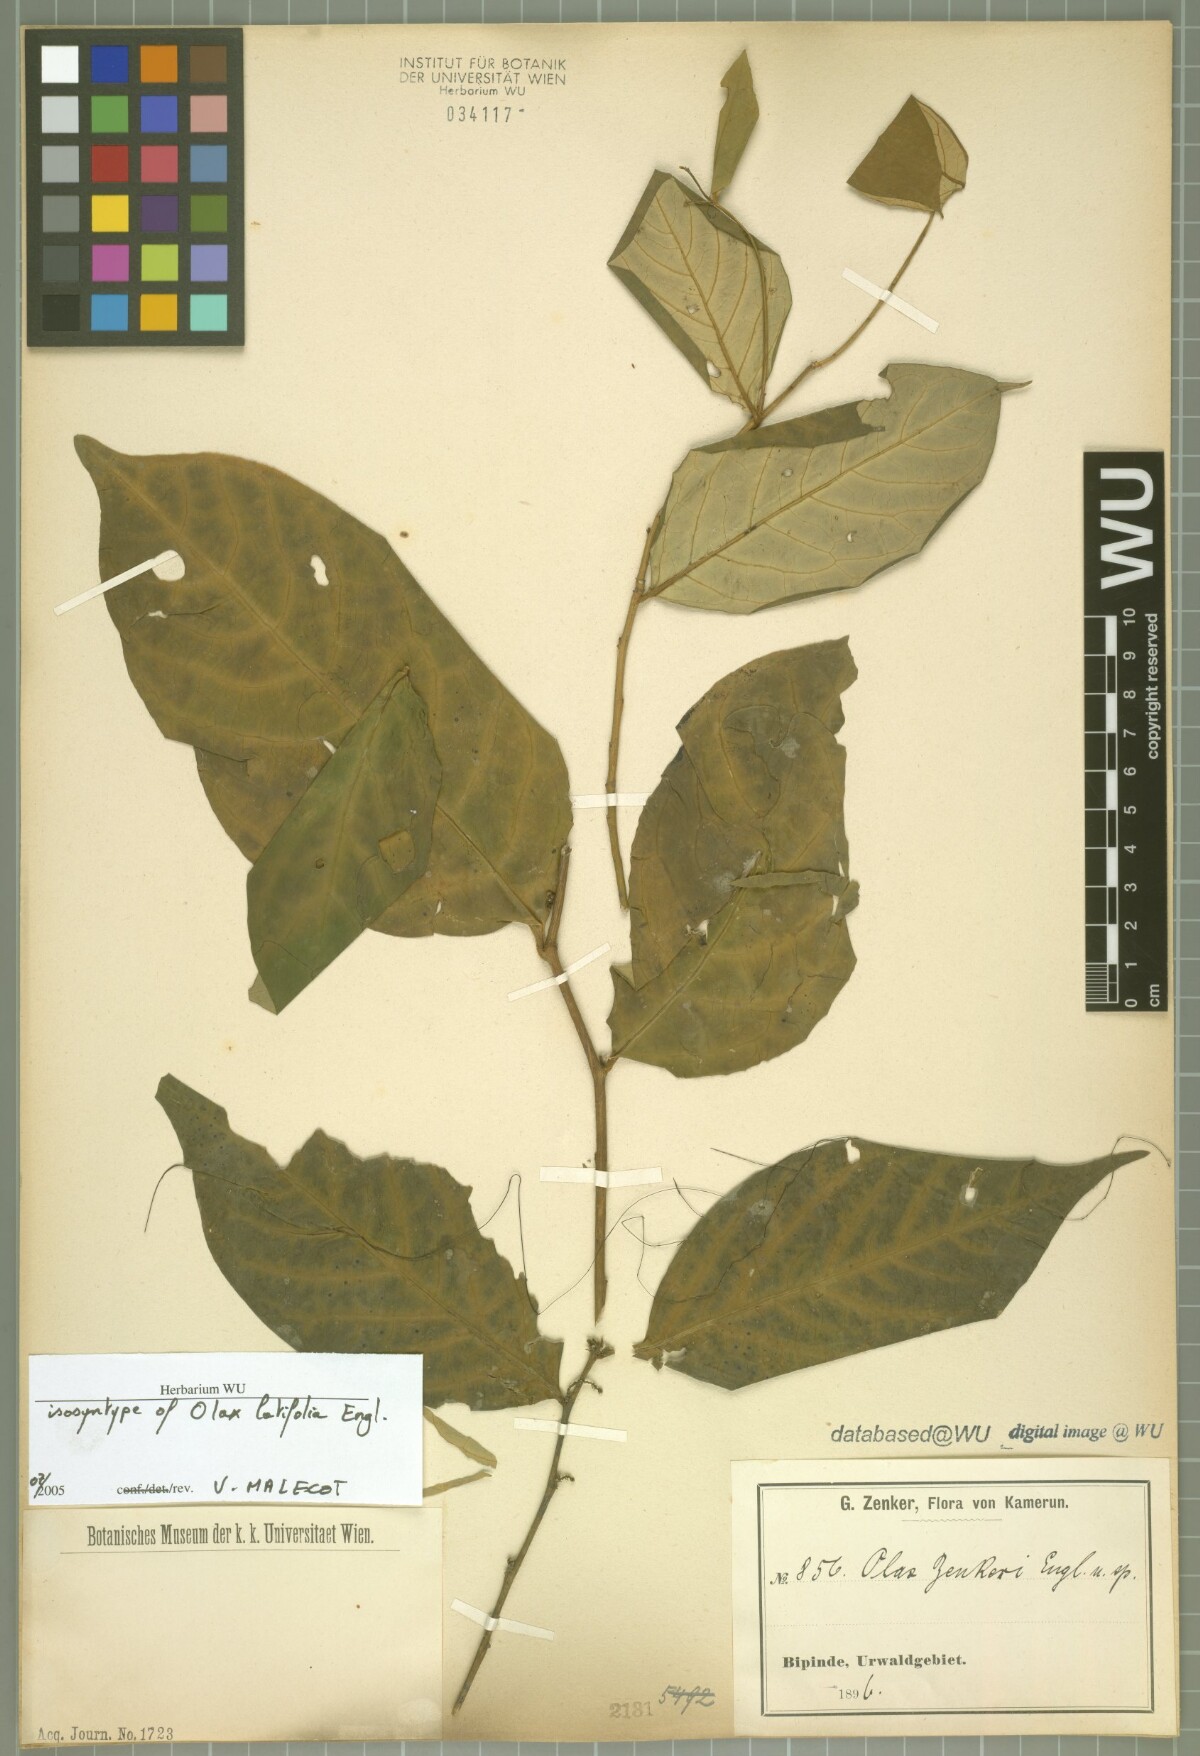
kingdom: Plantae
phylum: Tracheophyta
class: Magnoliopsida
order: Santalales
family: Olacaceae
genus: Olax
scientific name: Olax latifolia
